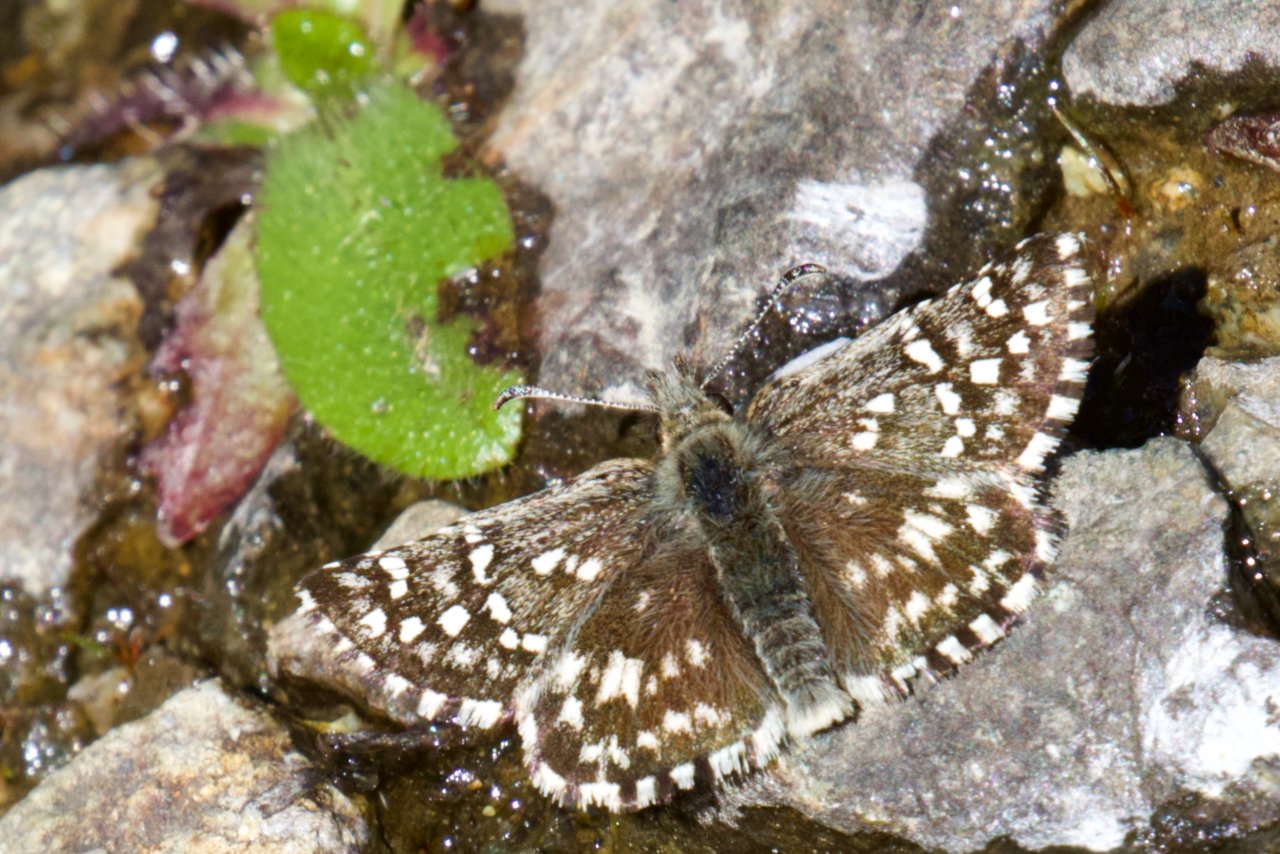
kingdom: Animalia
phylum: Arthropoda
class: Insecta
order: Lepidoptera
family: Hesperiidae
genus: Pyrgus
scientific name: Pyrgus ruralis
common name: Two-banded Checkered-Skipper
